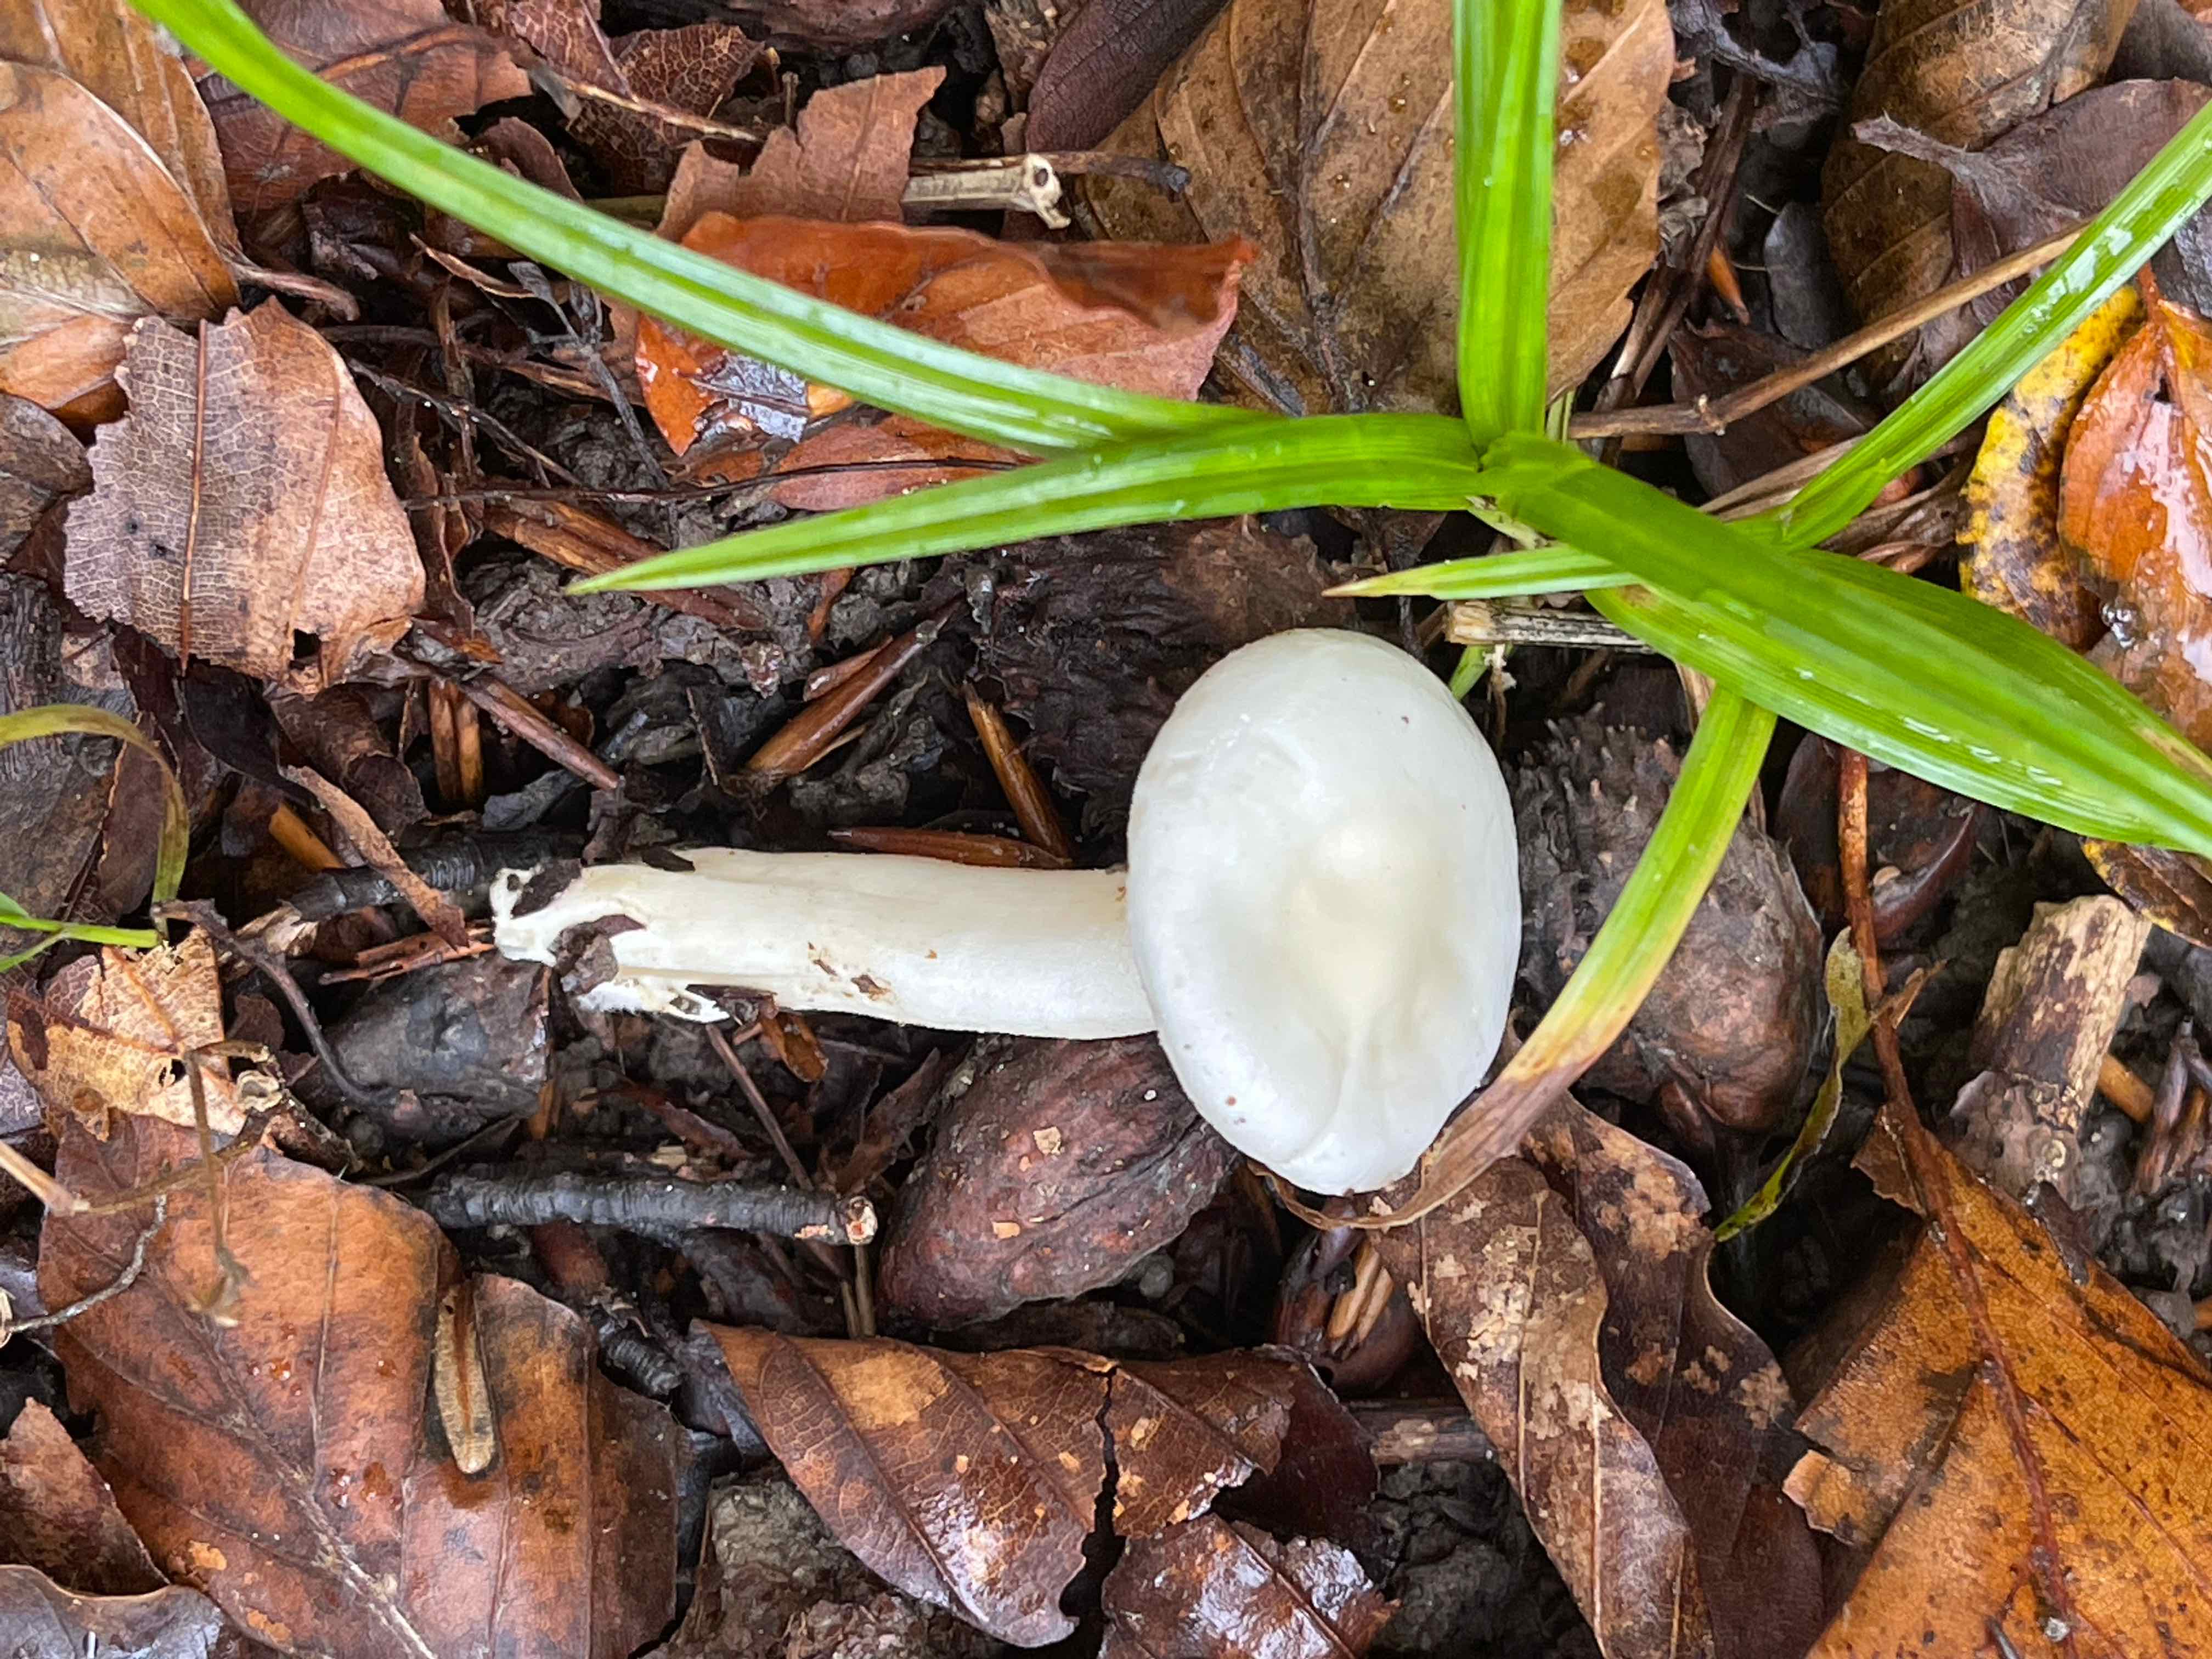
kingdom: Fungi
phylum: Basidiomycota
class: Agaricomycetes
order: Agaricales
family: Hygrophoraceae
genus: Hygrophorus
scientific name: Hygrophorus
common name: sneglehat
